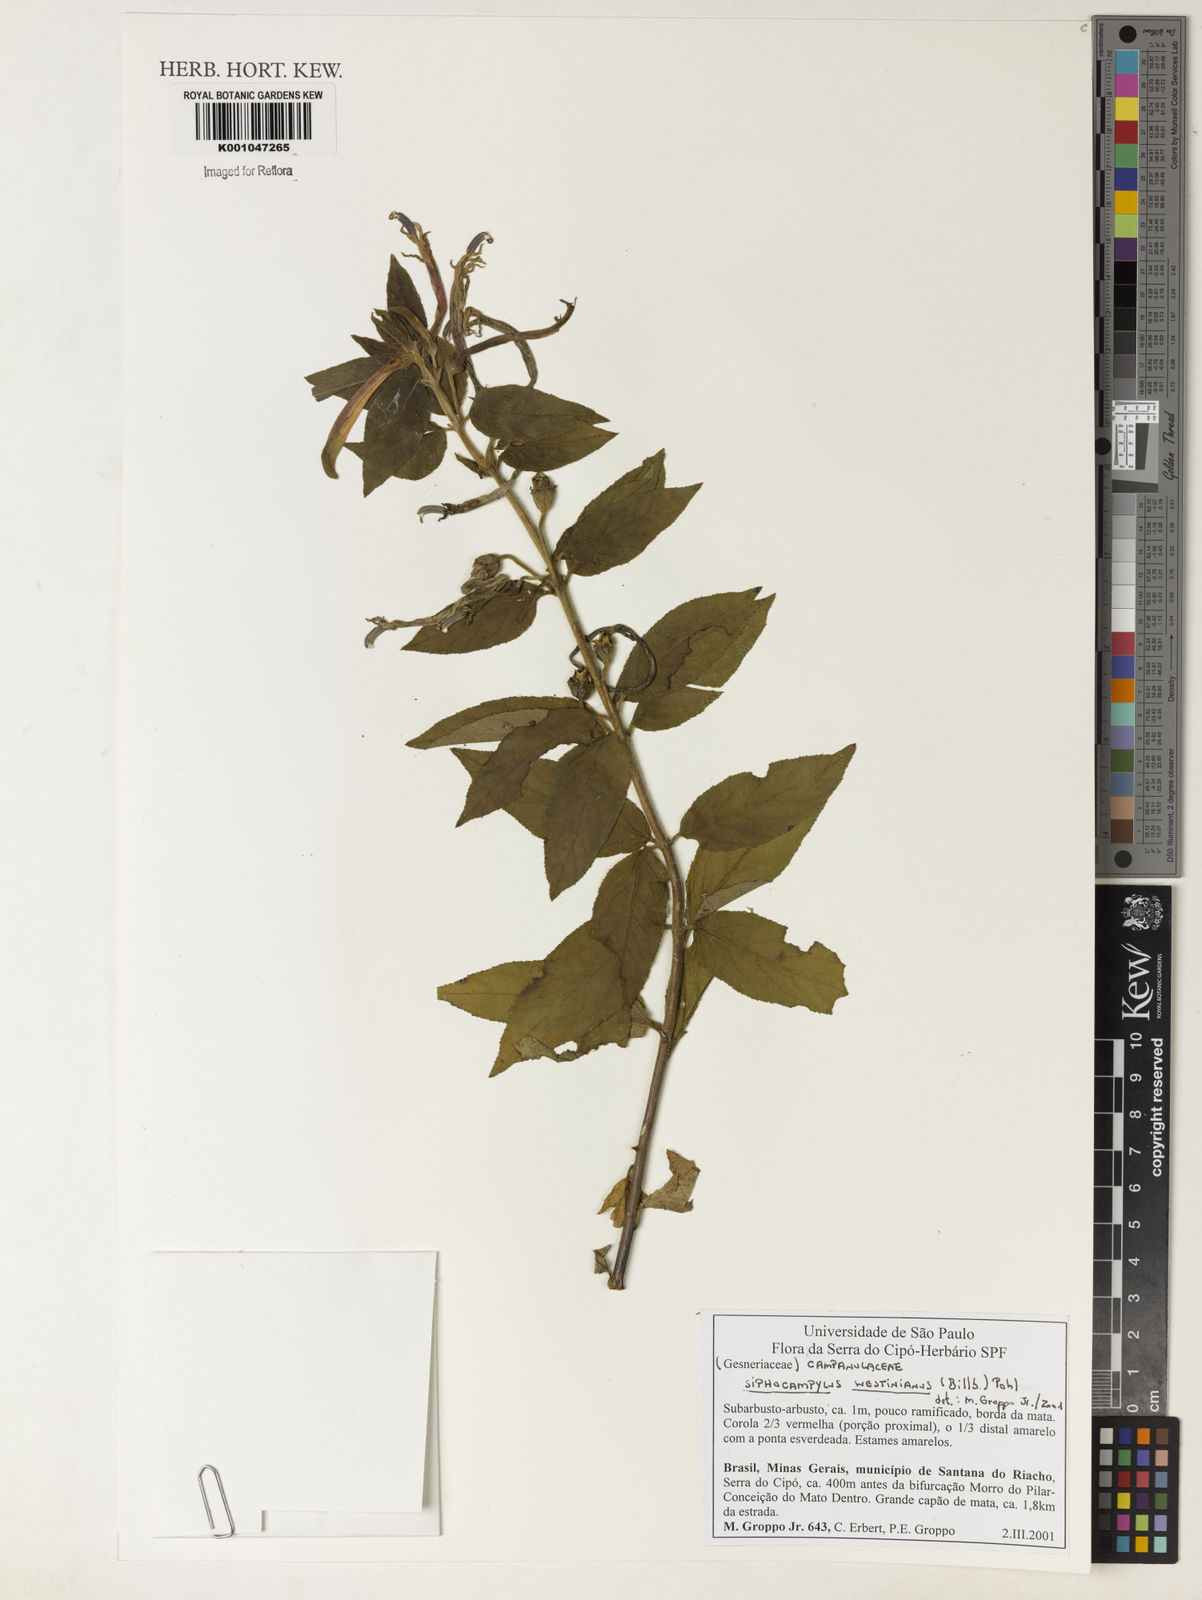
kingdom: Plantae
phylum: Tracheophyta
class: Magnoliopsida
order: Asterales
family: Campanulaceae
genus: Siphocampylus
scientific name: Siphocampylus westinianus
